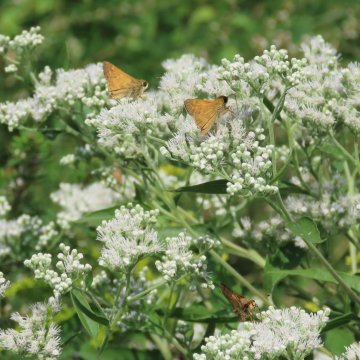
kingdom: Animalia
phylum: Arthropoda
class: Insecta
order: Lepidoptera
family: Hesperiidae
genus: Atalopedes
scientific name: Atalopedes campestris
